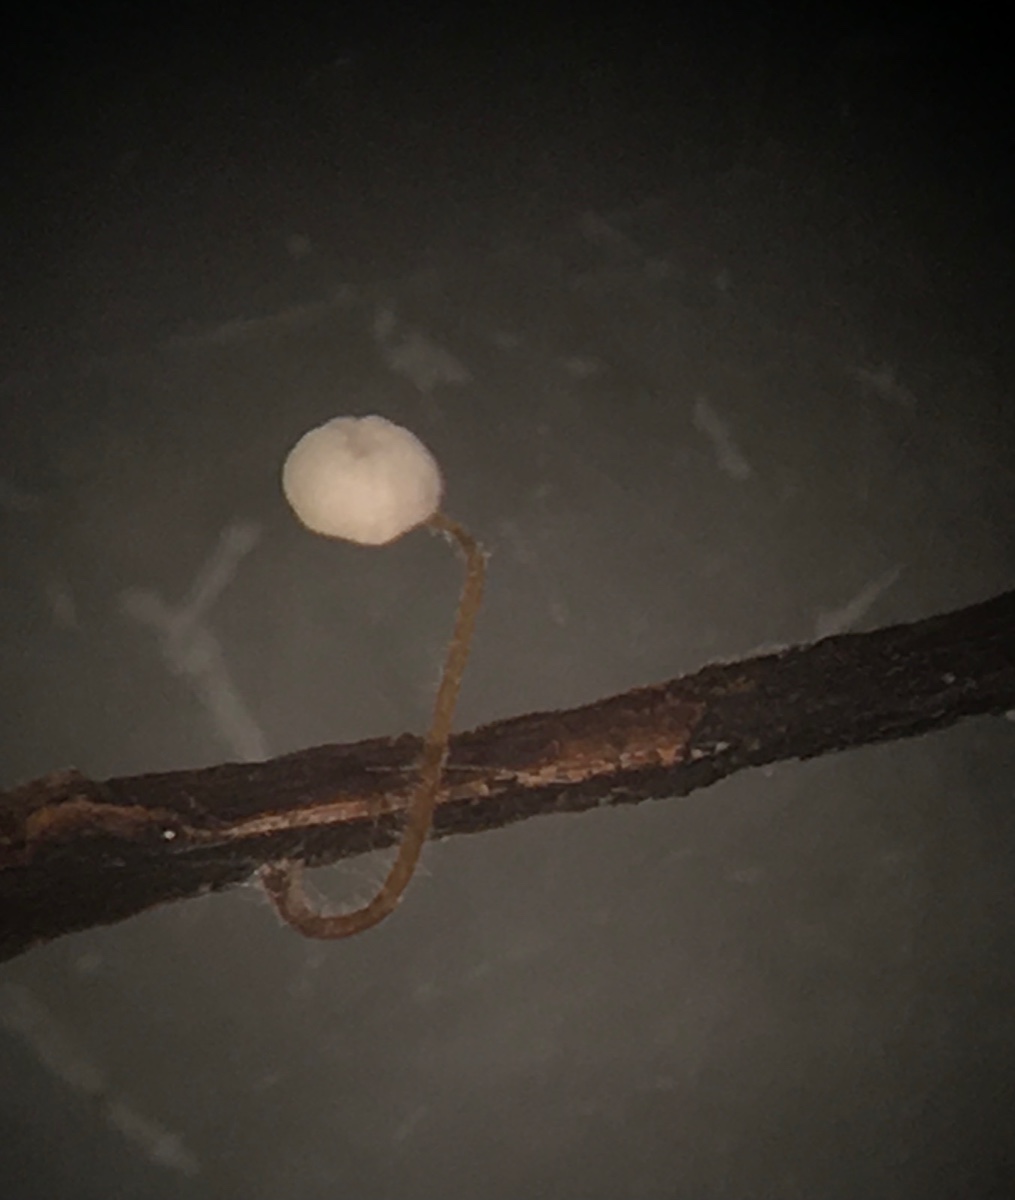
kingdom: Fungi
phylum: Basidiomycota
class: Agaricomycetes
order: Agaricales
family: Physalacriaceae
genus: Rhizomarasmius
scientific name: Rhizomarasmius setosus
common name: bøgeblads-bruskhat
